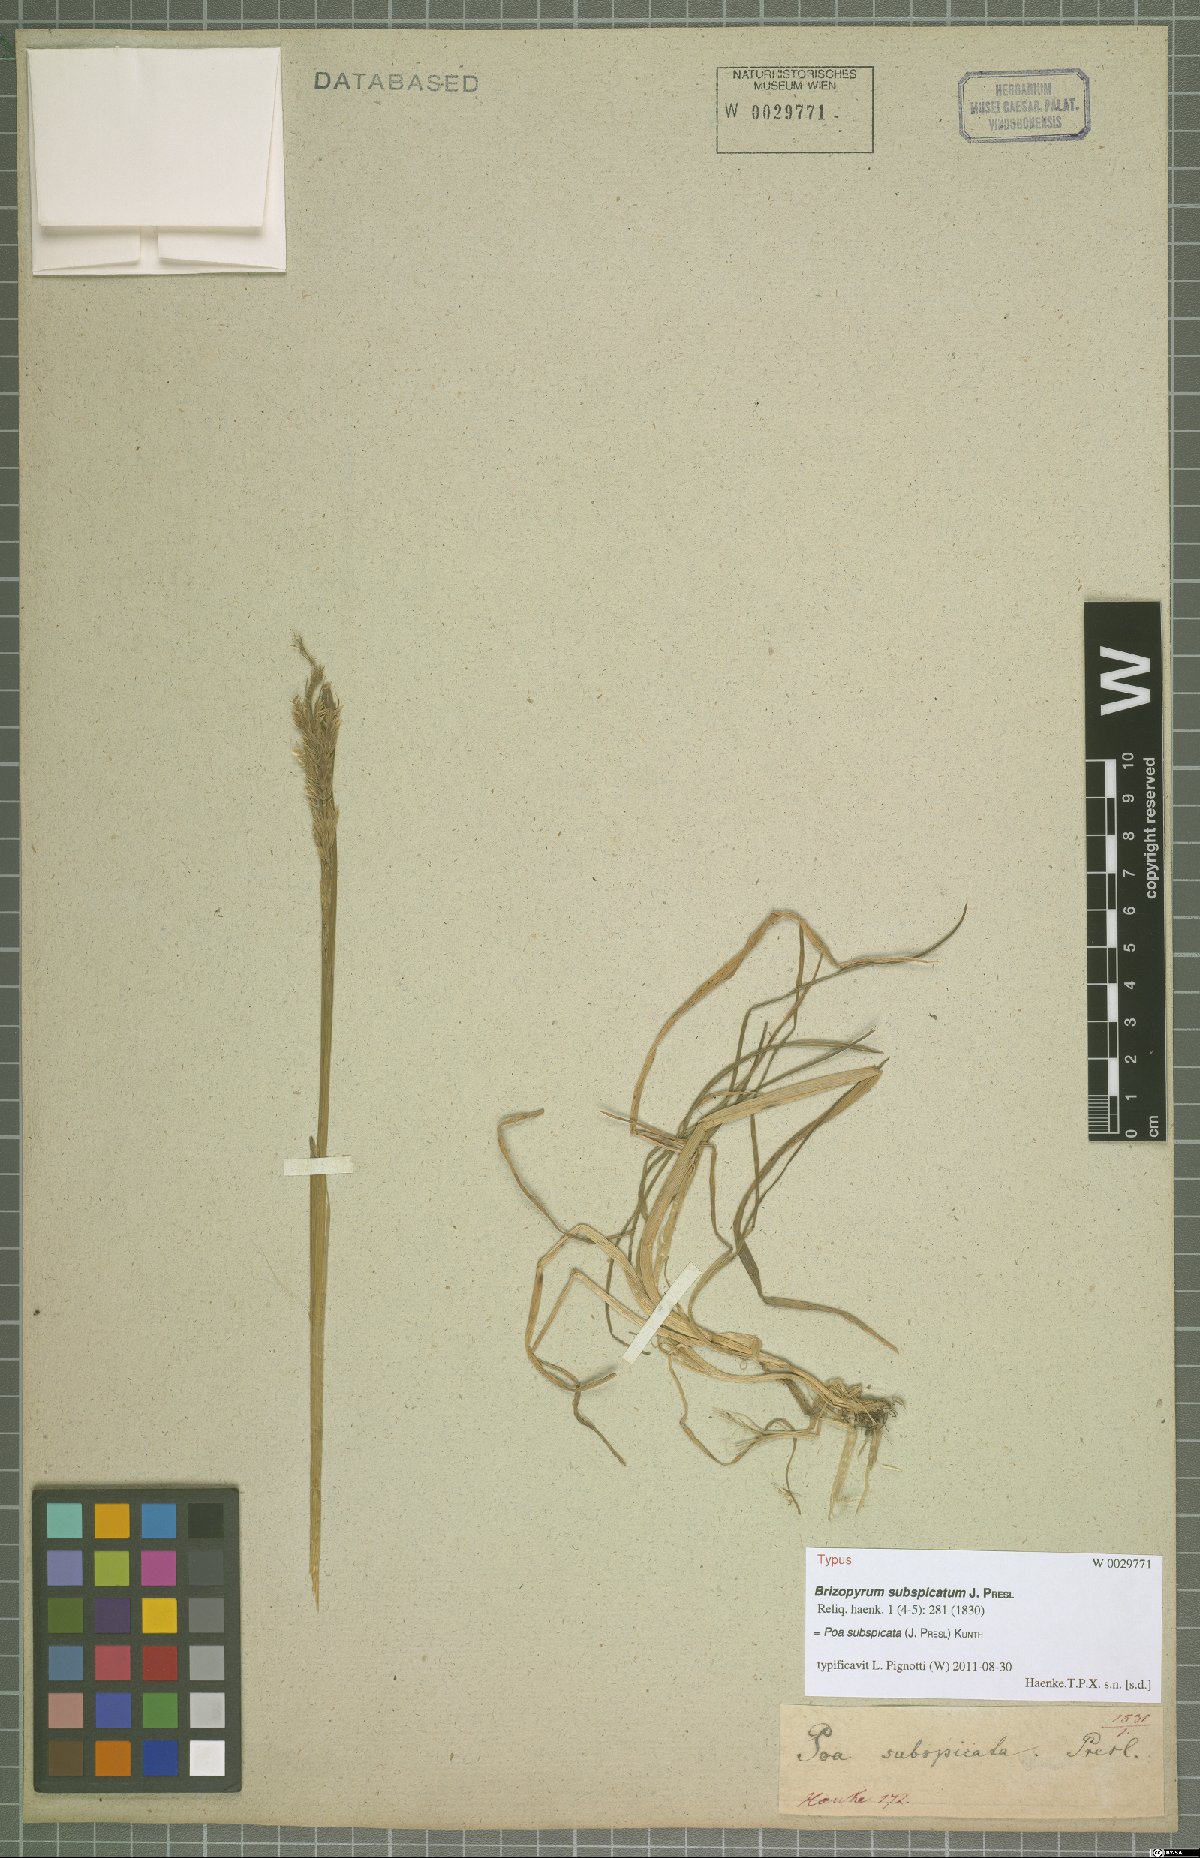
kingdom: Plantae
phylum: Tracheophyta
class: Liliopsida
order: Poales
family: Poaceae
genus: Poa
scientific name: Poa subspicata
